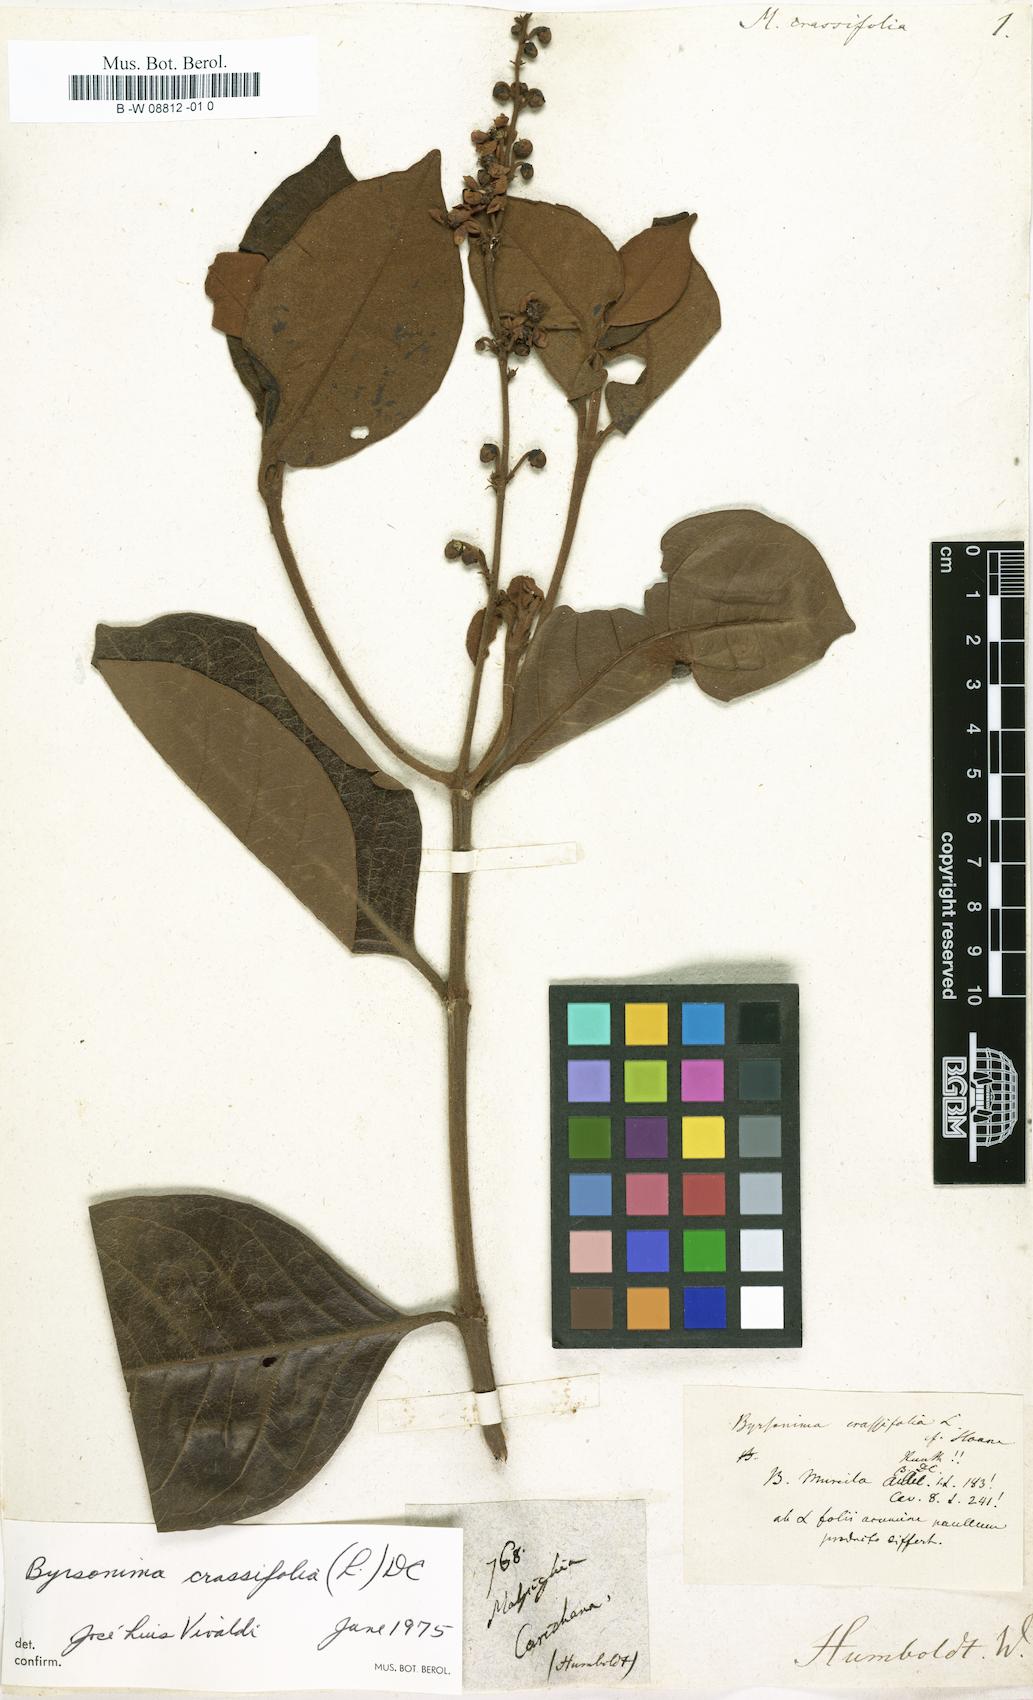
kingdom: Plantae
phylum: Tracheophyta
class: Magnoliopsida
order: Malpighiales
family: Malpighiaceae
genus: Byrsonima
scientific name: Byrsonima crassifolia
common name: Golden spoon
